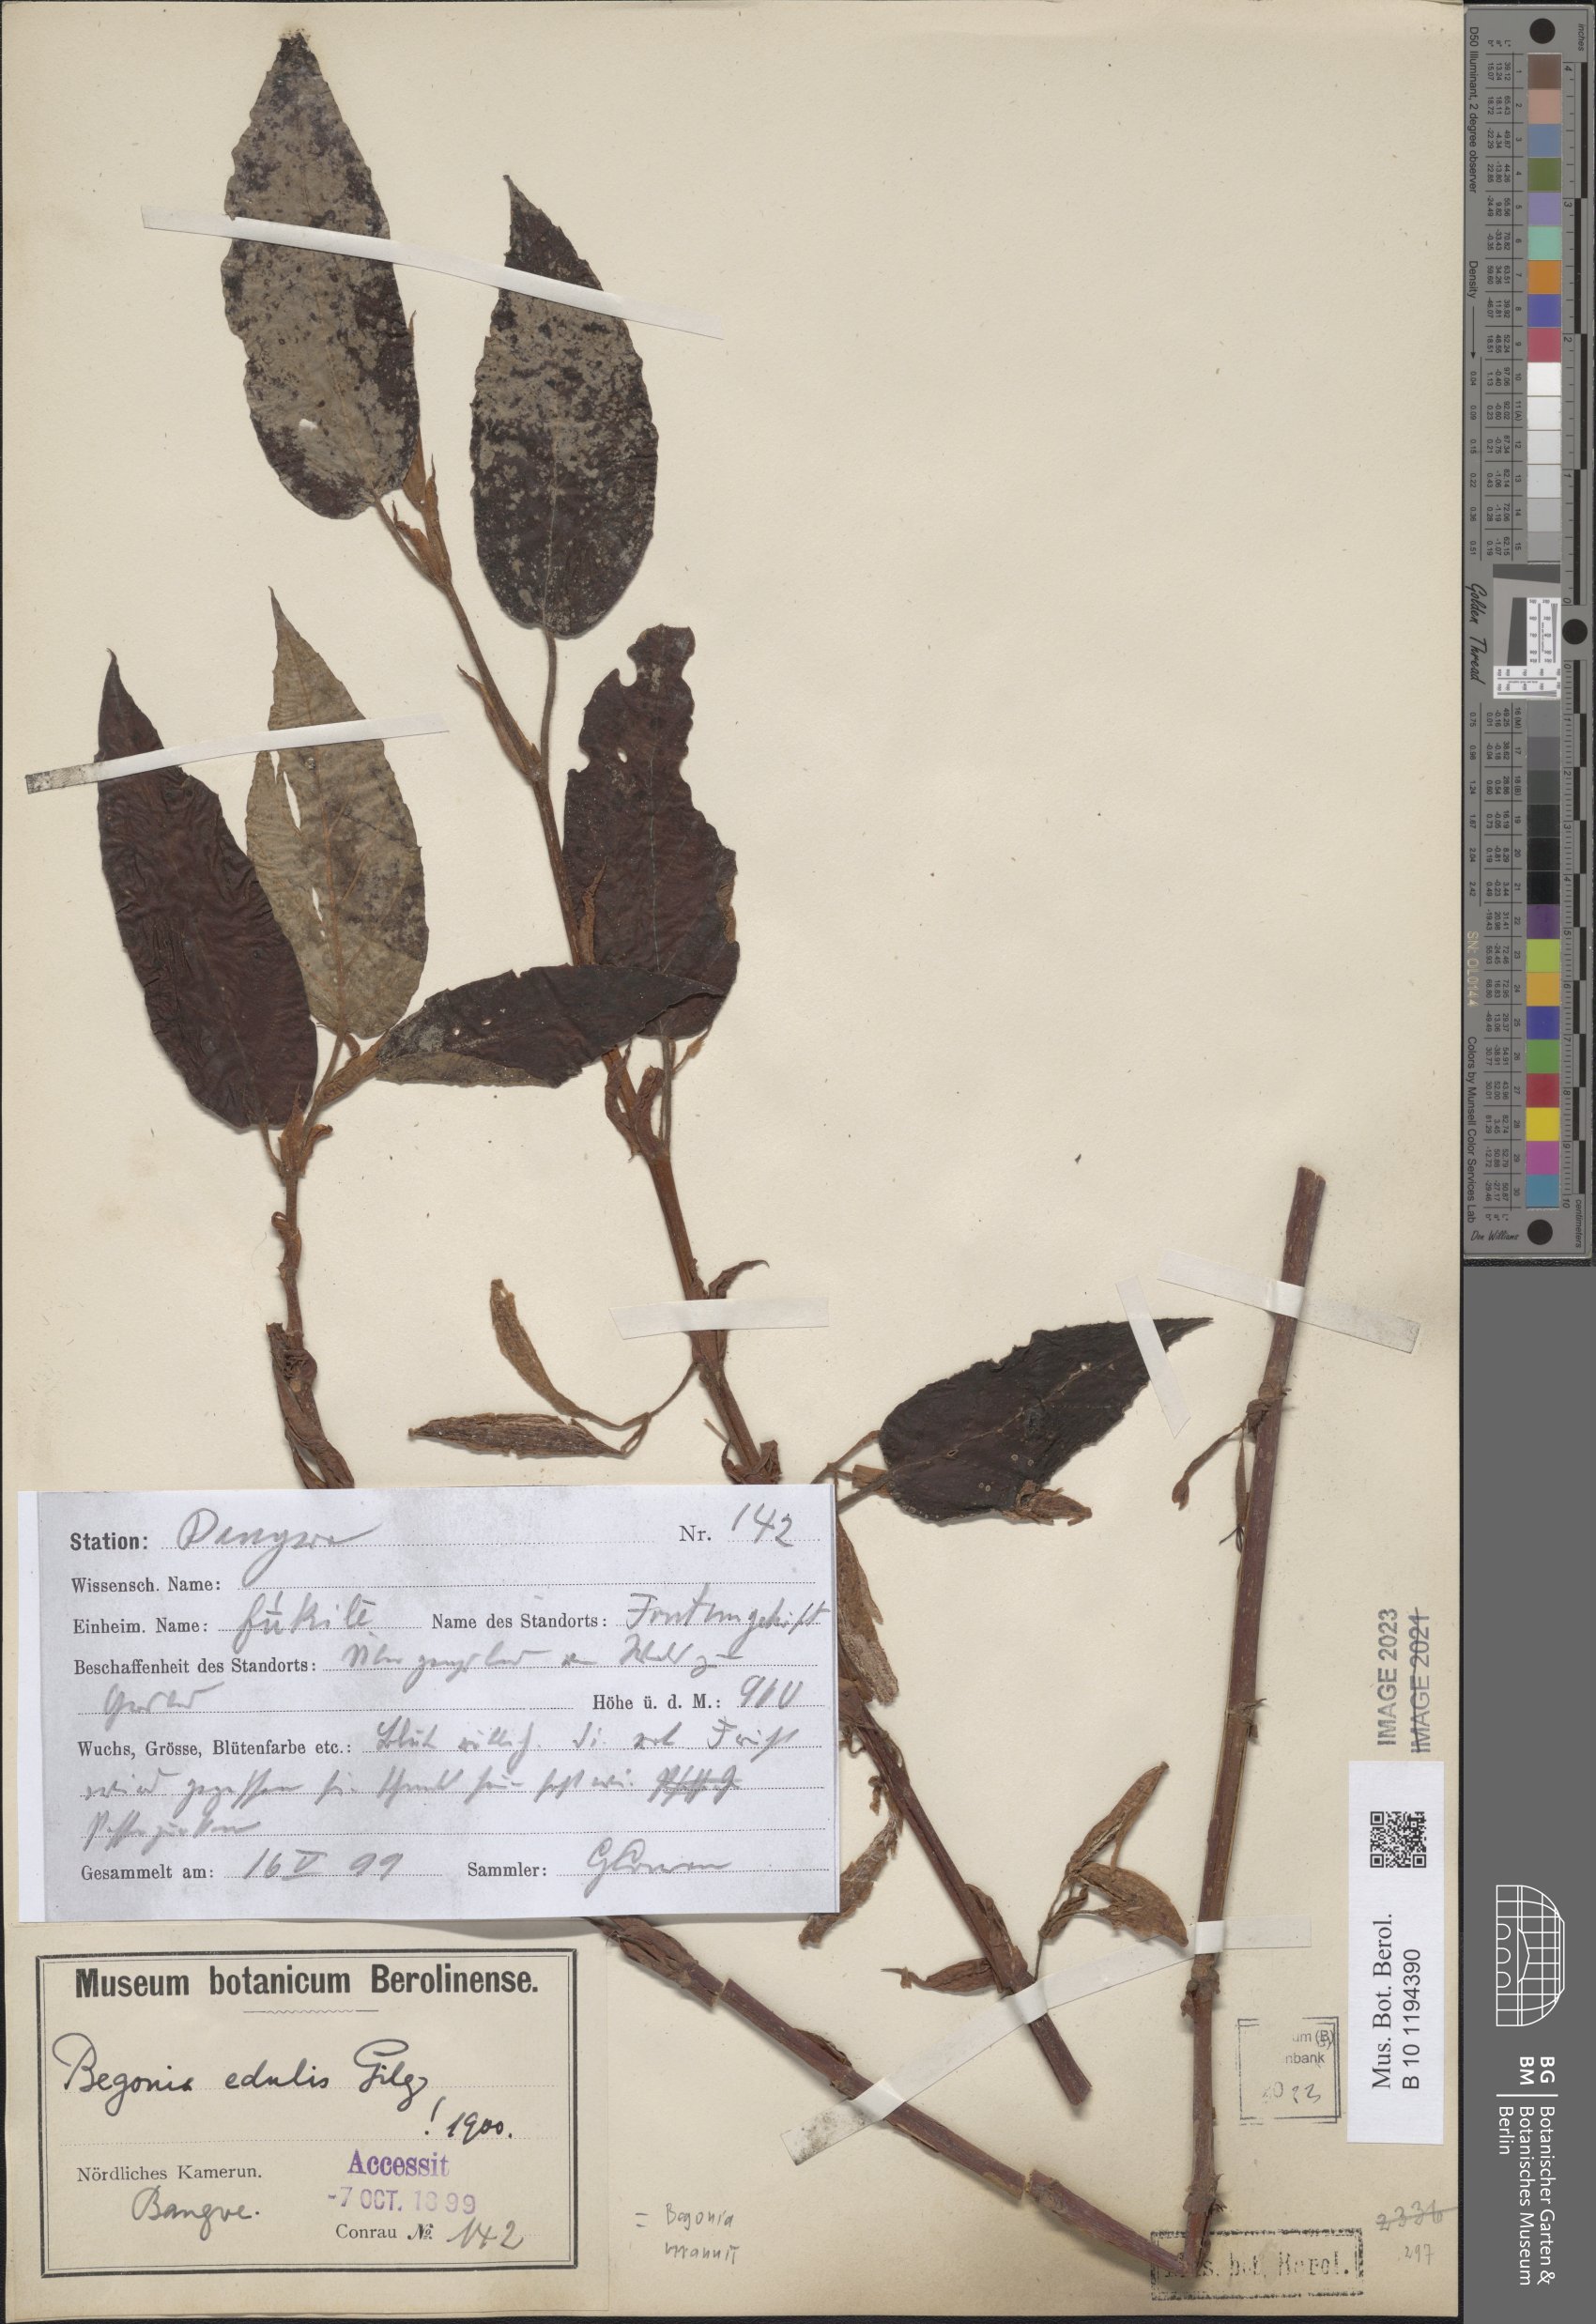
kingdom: Plantae
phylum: Tracheophyta
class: Magnoliopsida
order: Cucurbitales
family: Begoniaceae
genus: Begonia
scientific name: Begonia mannii
